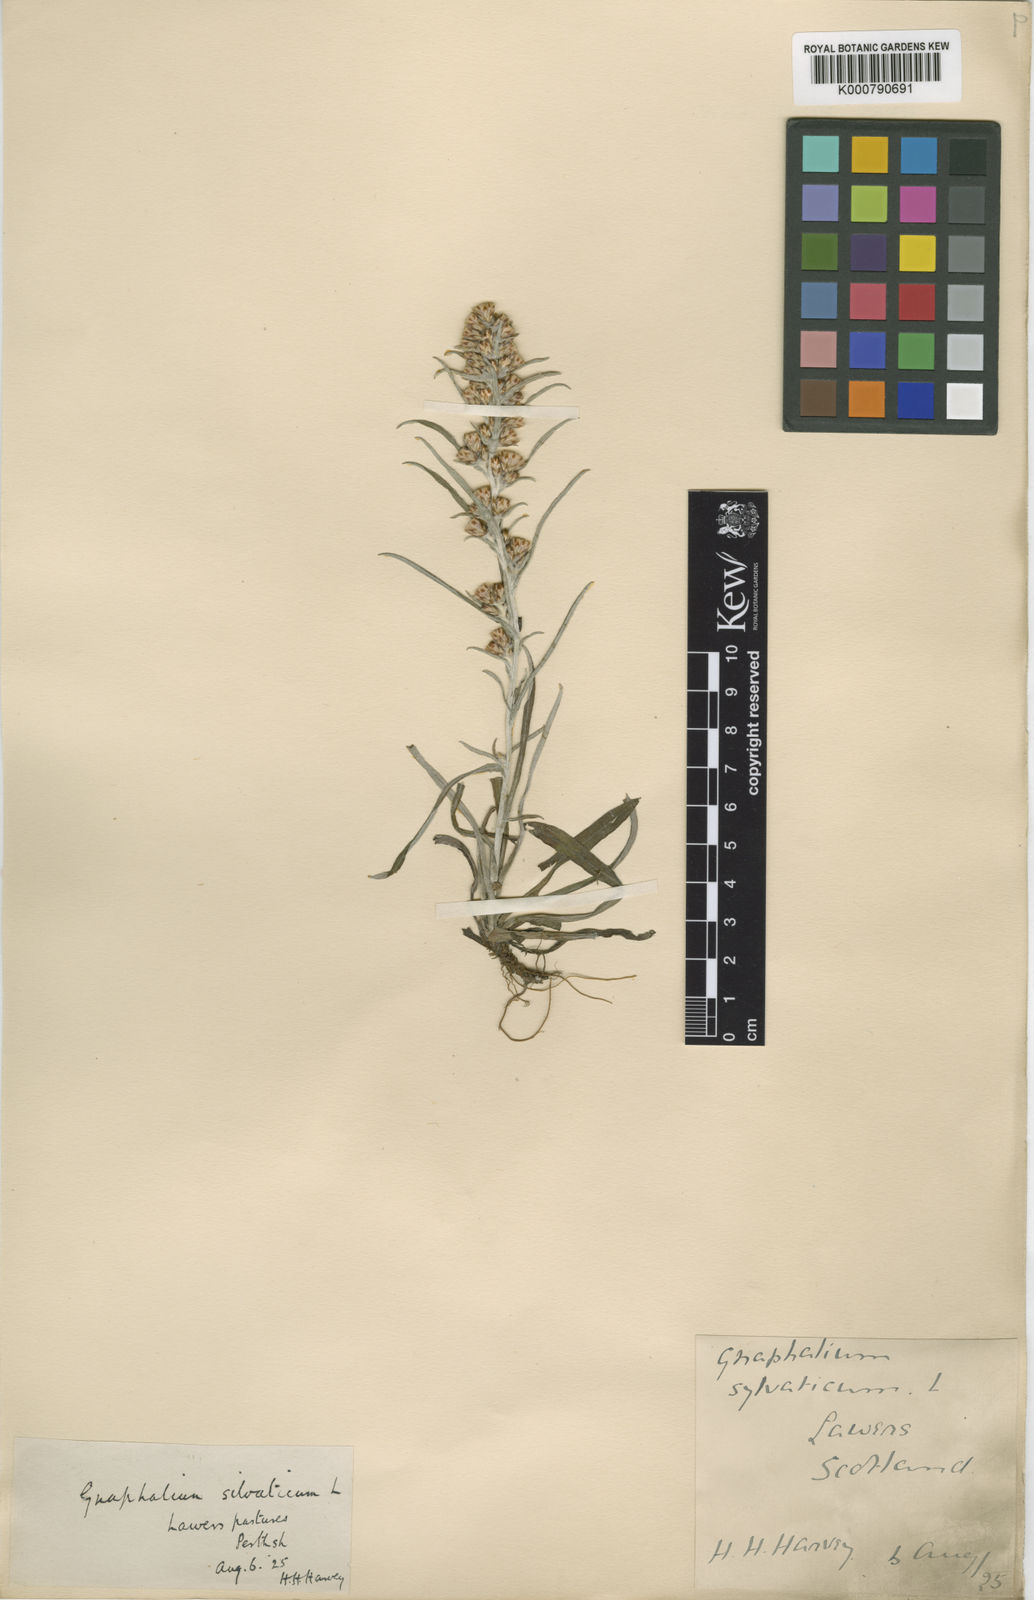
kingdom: Plantae
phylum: Tracheophyta
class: Magnoliopsida
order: Asterales
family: Asteraceae
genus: Omalotheca
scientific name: Omalotheca sylvatica
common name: Heath cudweed
